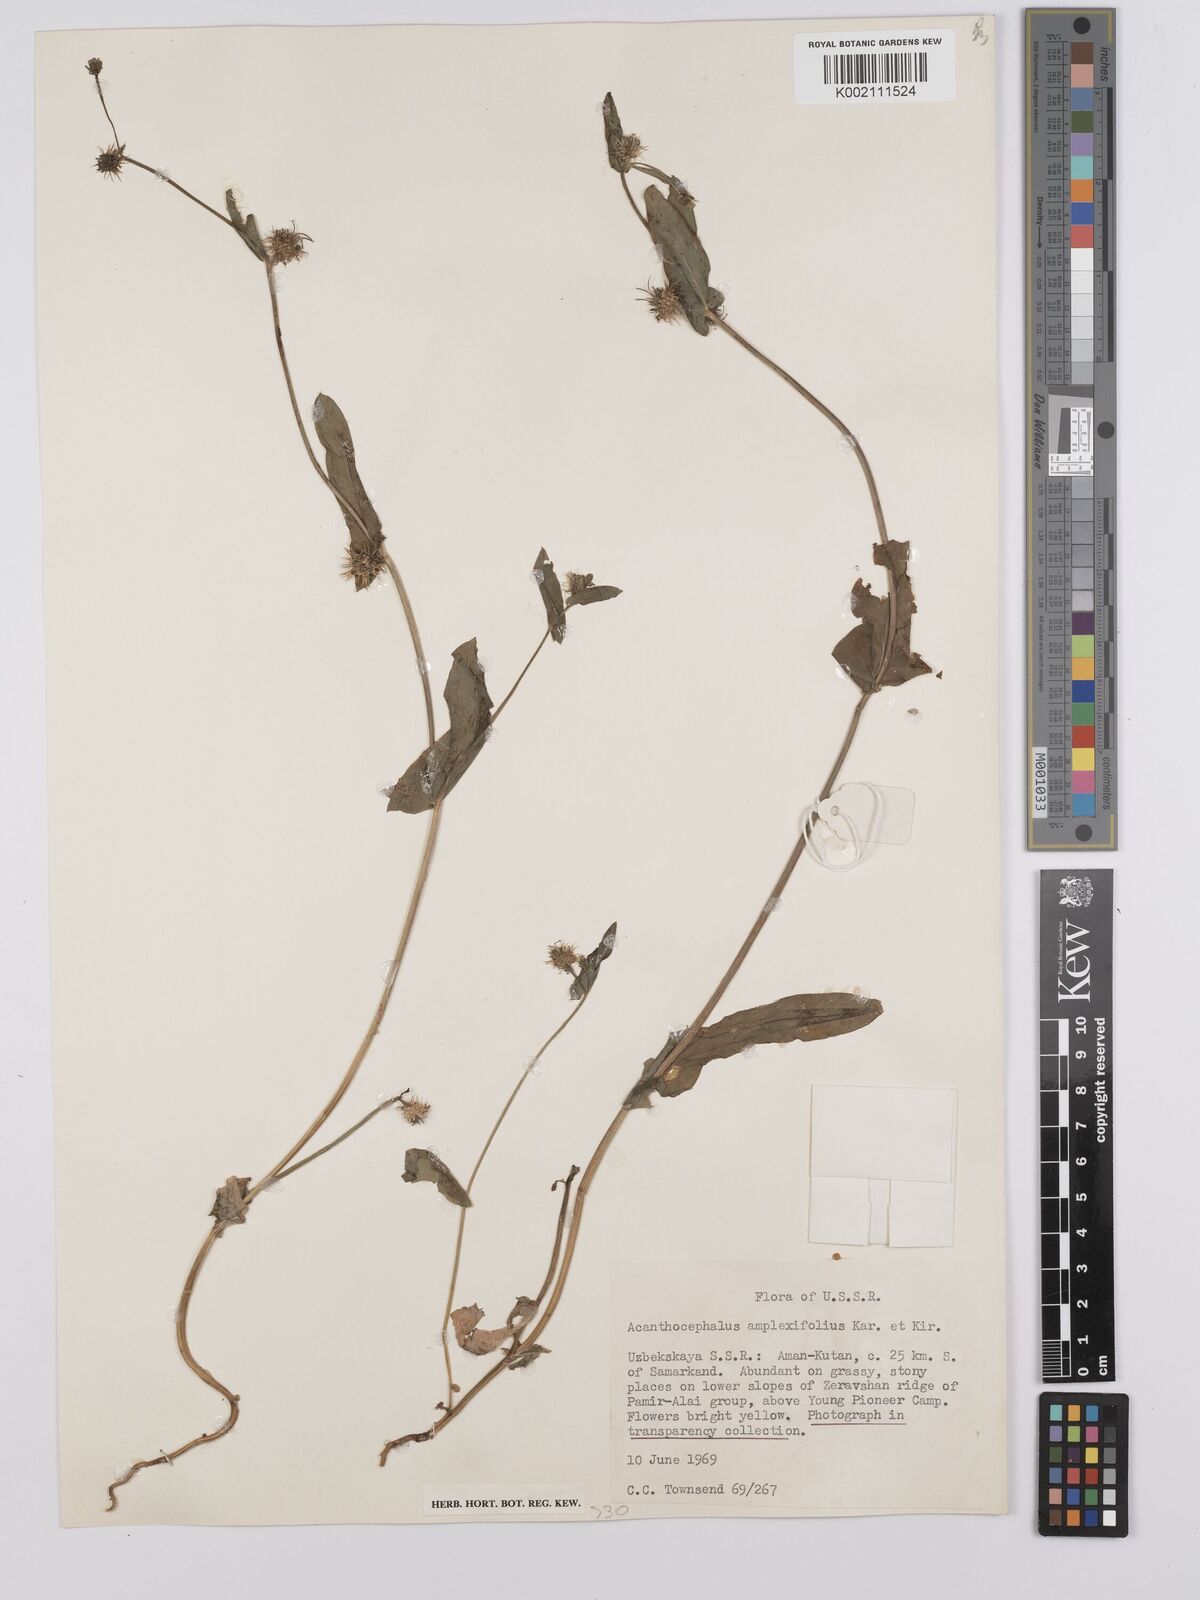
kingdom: Plantae
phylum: Tracheophyta
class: Magnoliopsida
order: Asterales
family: Asteraceae
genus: Acanthocephalus
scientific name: Acanthocephalus amplexifolius
